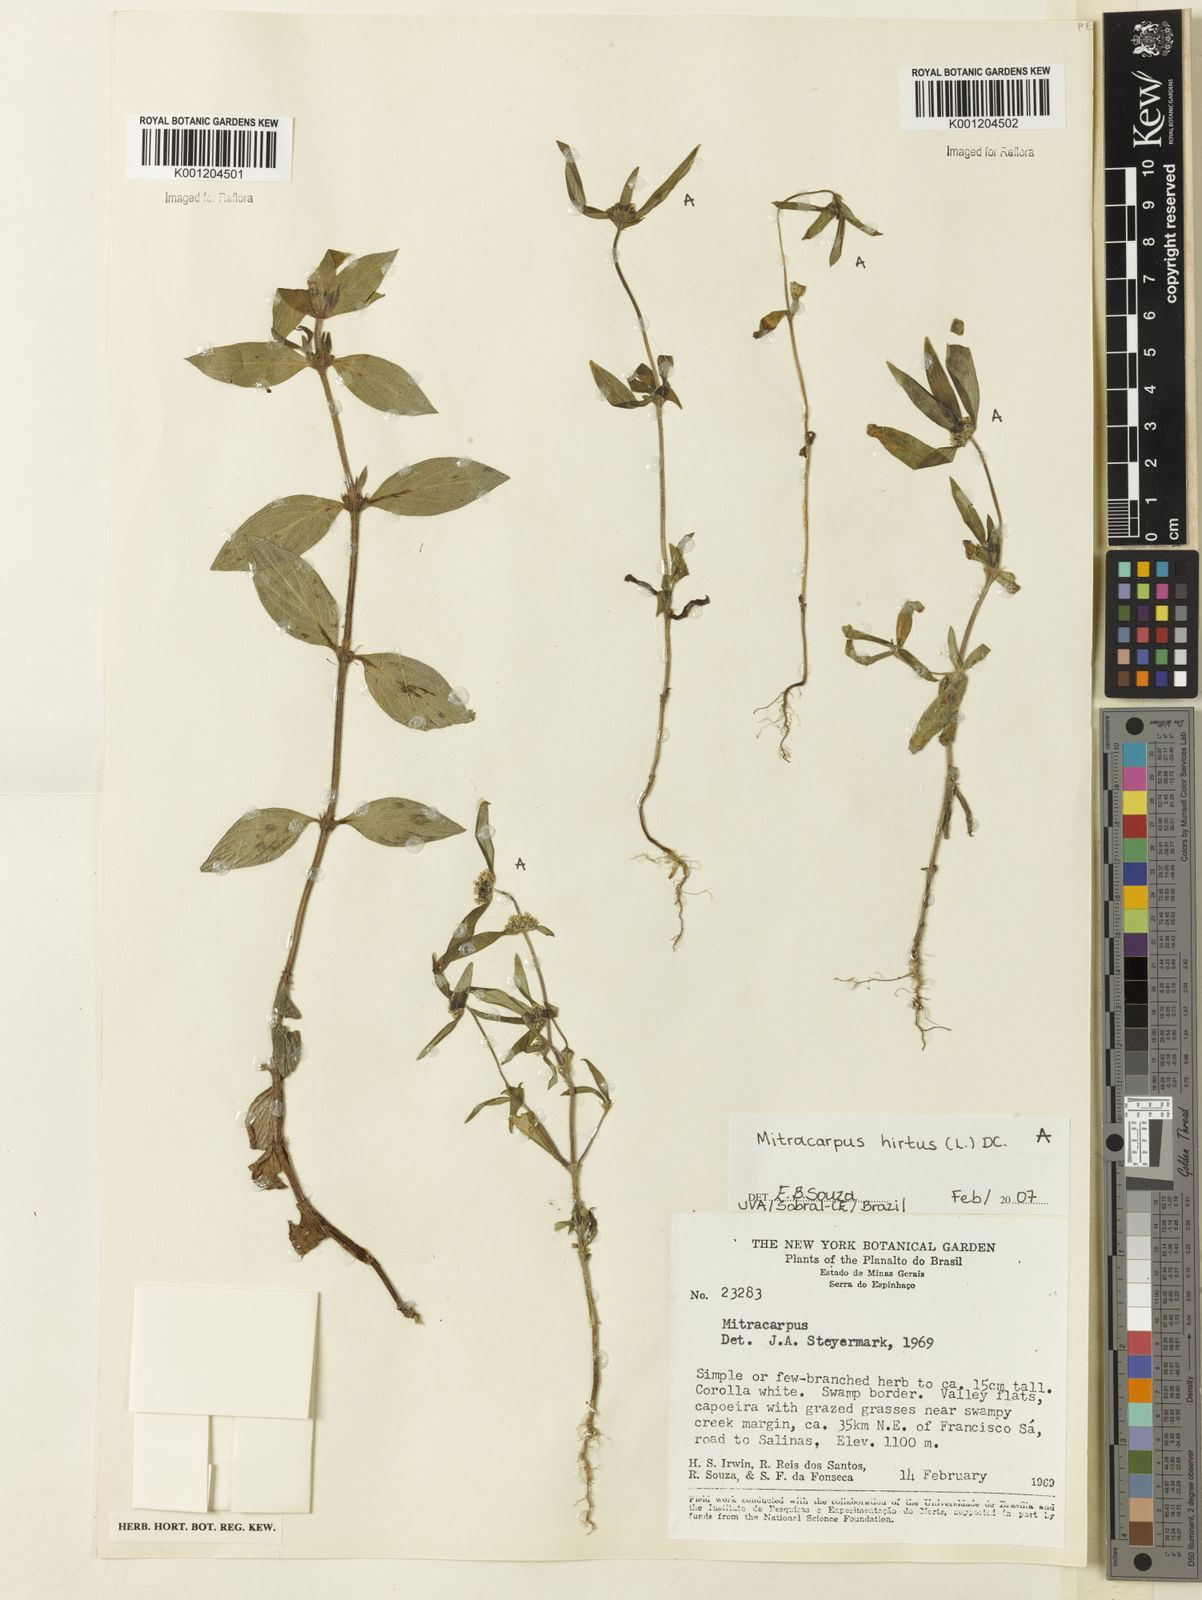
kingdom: Plantae
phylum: Tracheophyta
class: Magnoliopsida
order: Gentianales
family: Rubiaceae
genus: Mitracarpus
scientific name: Mitracarpus hirtus
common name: Tropical girdlepod
